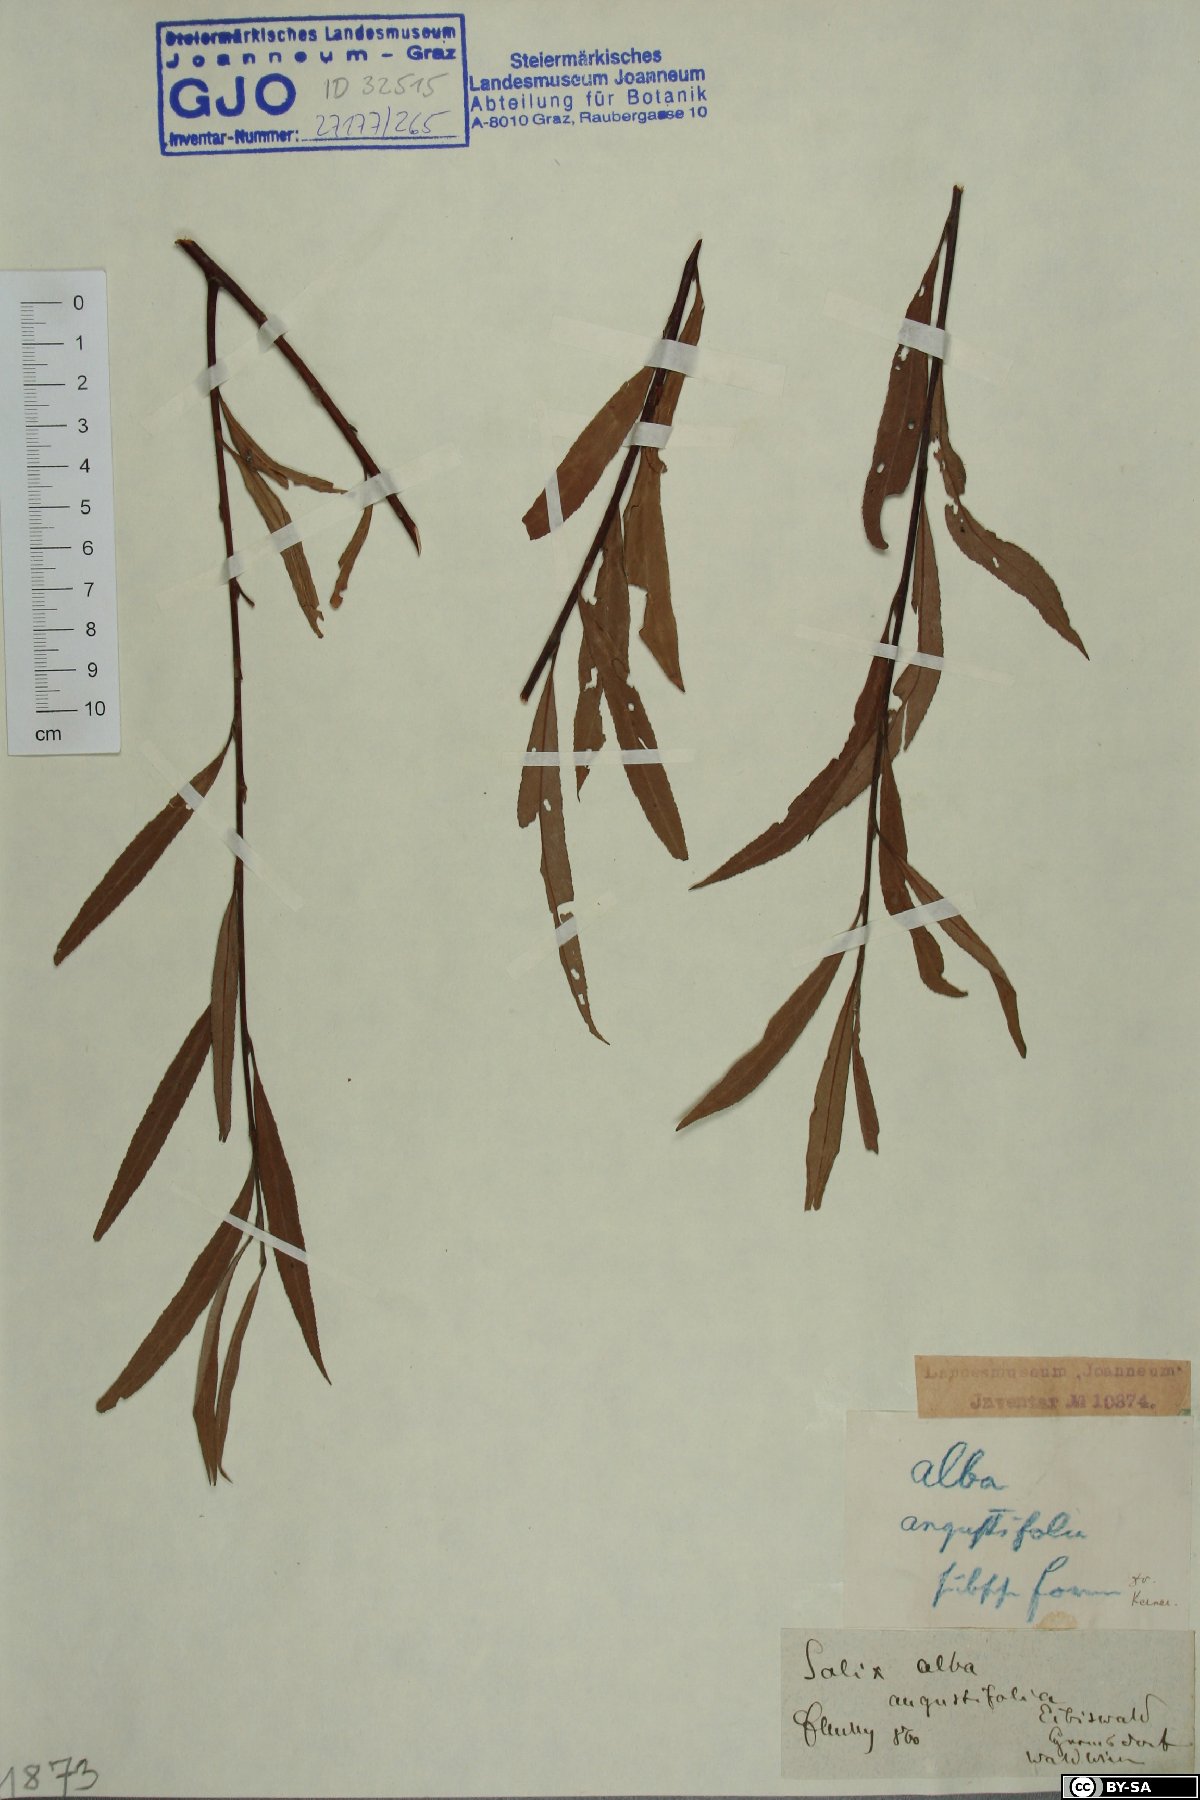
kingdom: Plantae
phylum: Tracheophyta
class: Magnoliopsida
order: Malpighiales
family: Salicaceae
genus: Salix
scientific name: Salix alba
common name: White willow
